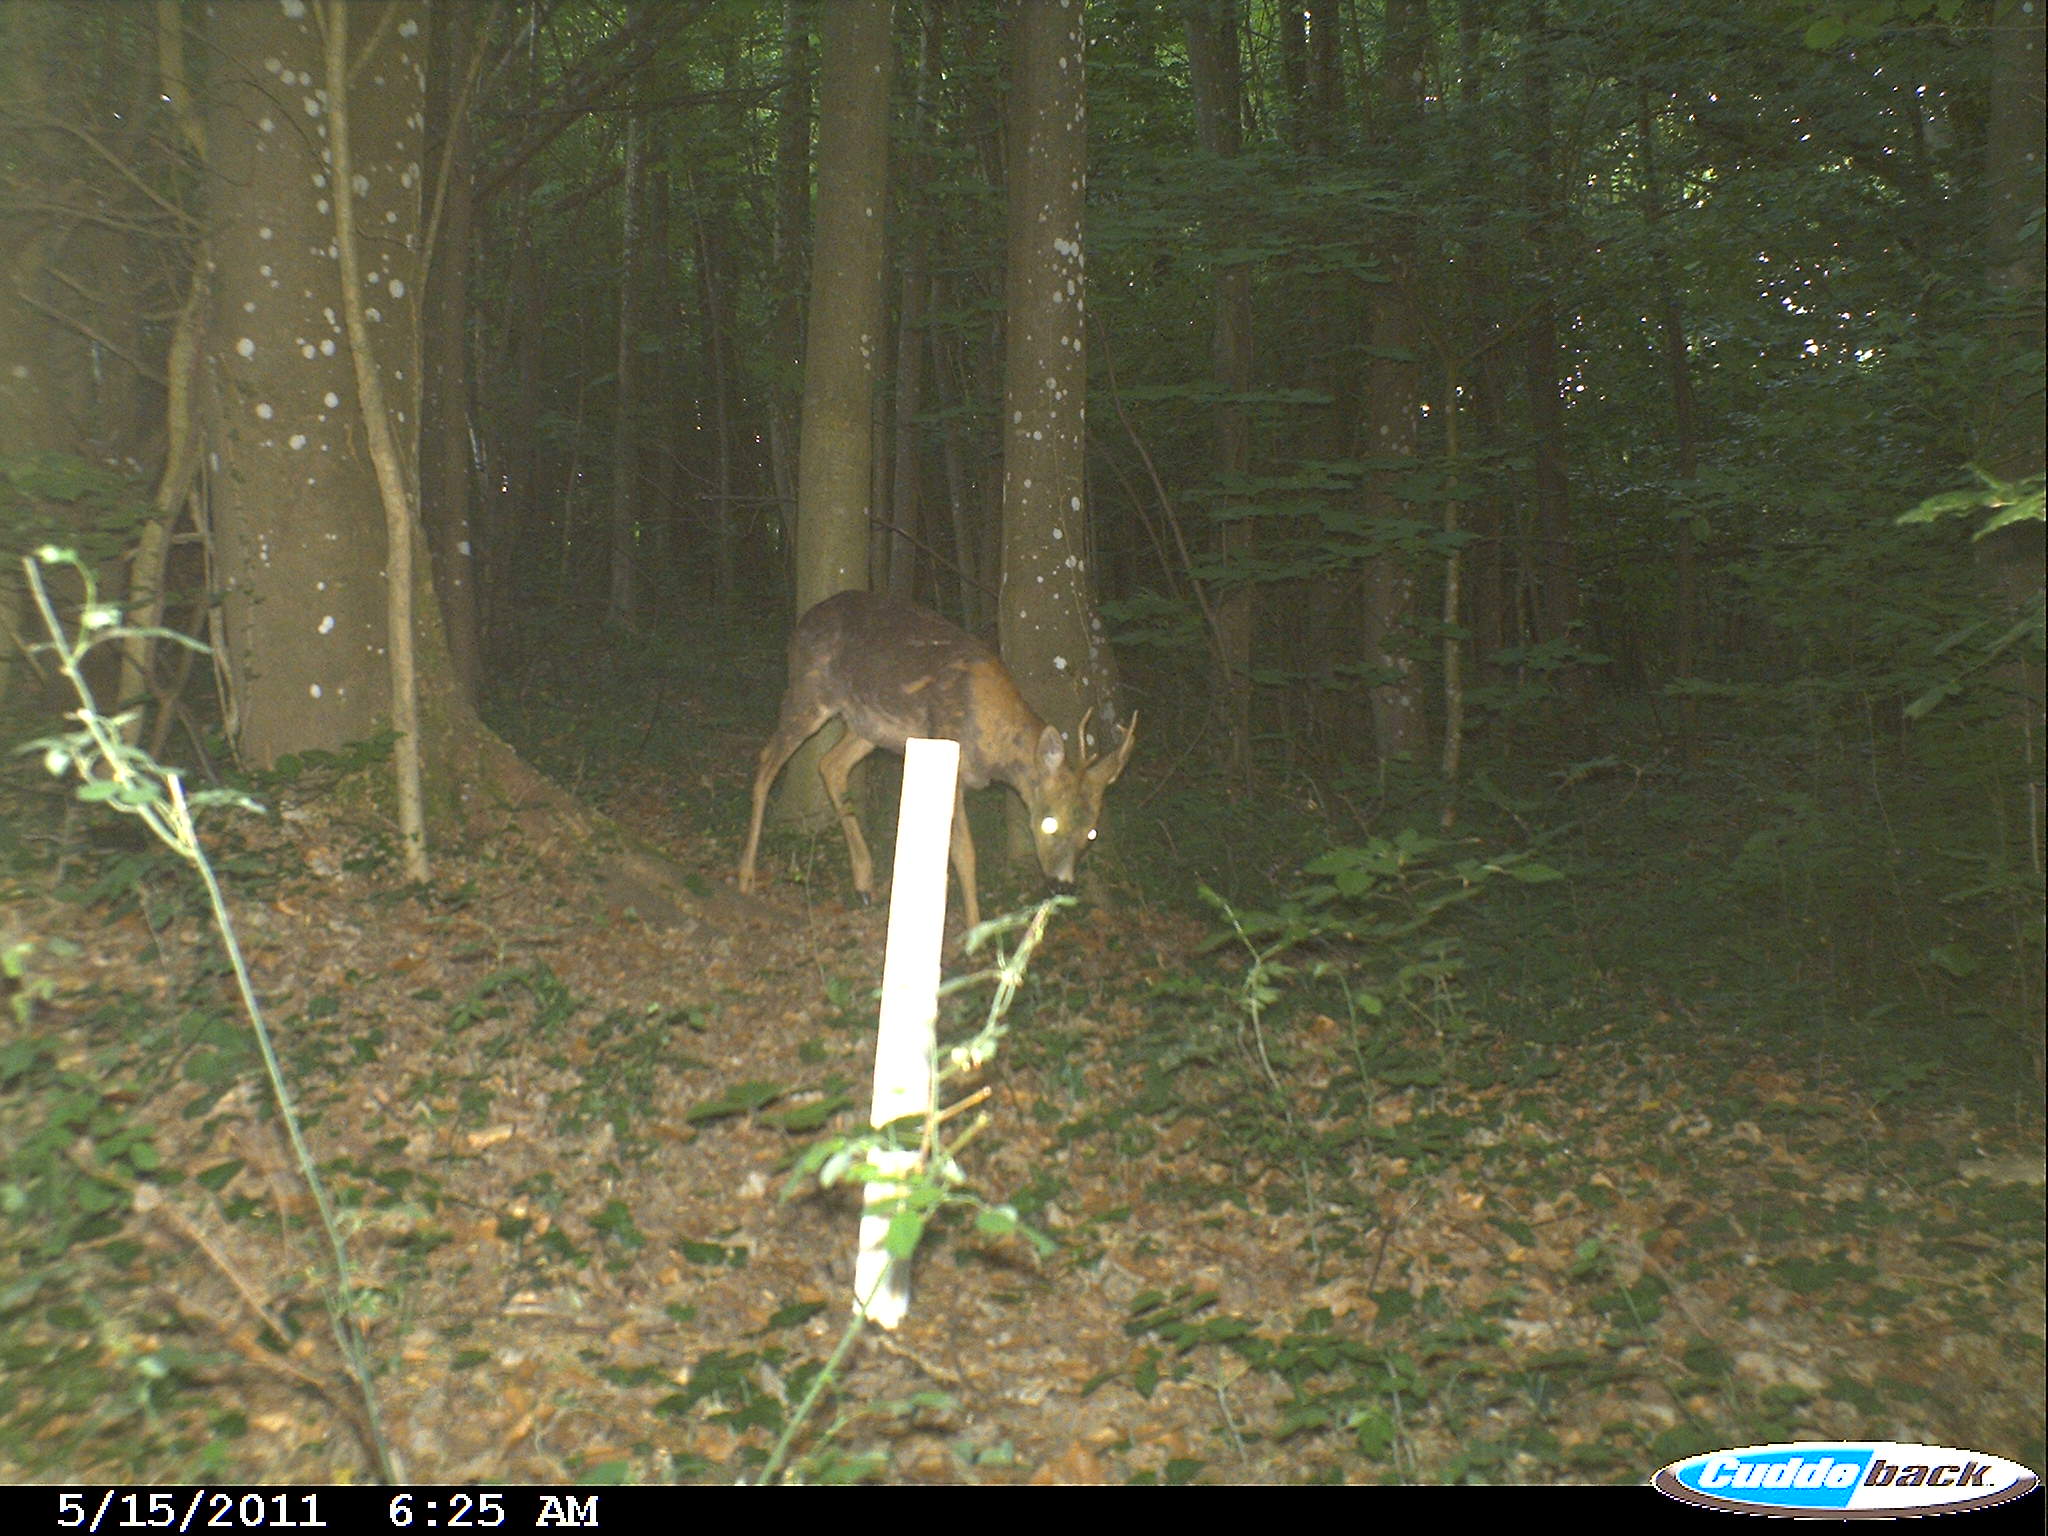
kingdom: Animalia
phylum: Chordata
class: Mammalia
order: Artiodactyla
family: Cervidae
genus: Capreolus
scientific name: Capreolus capreolus
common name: Western roe deer
